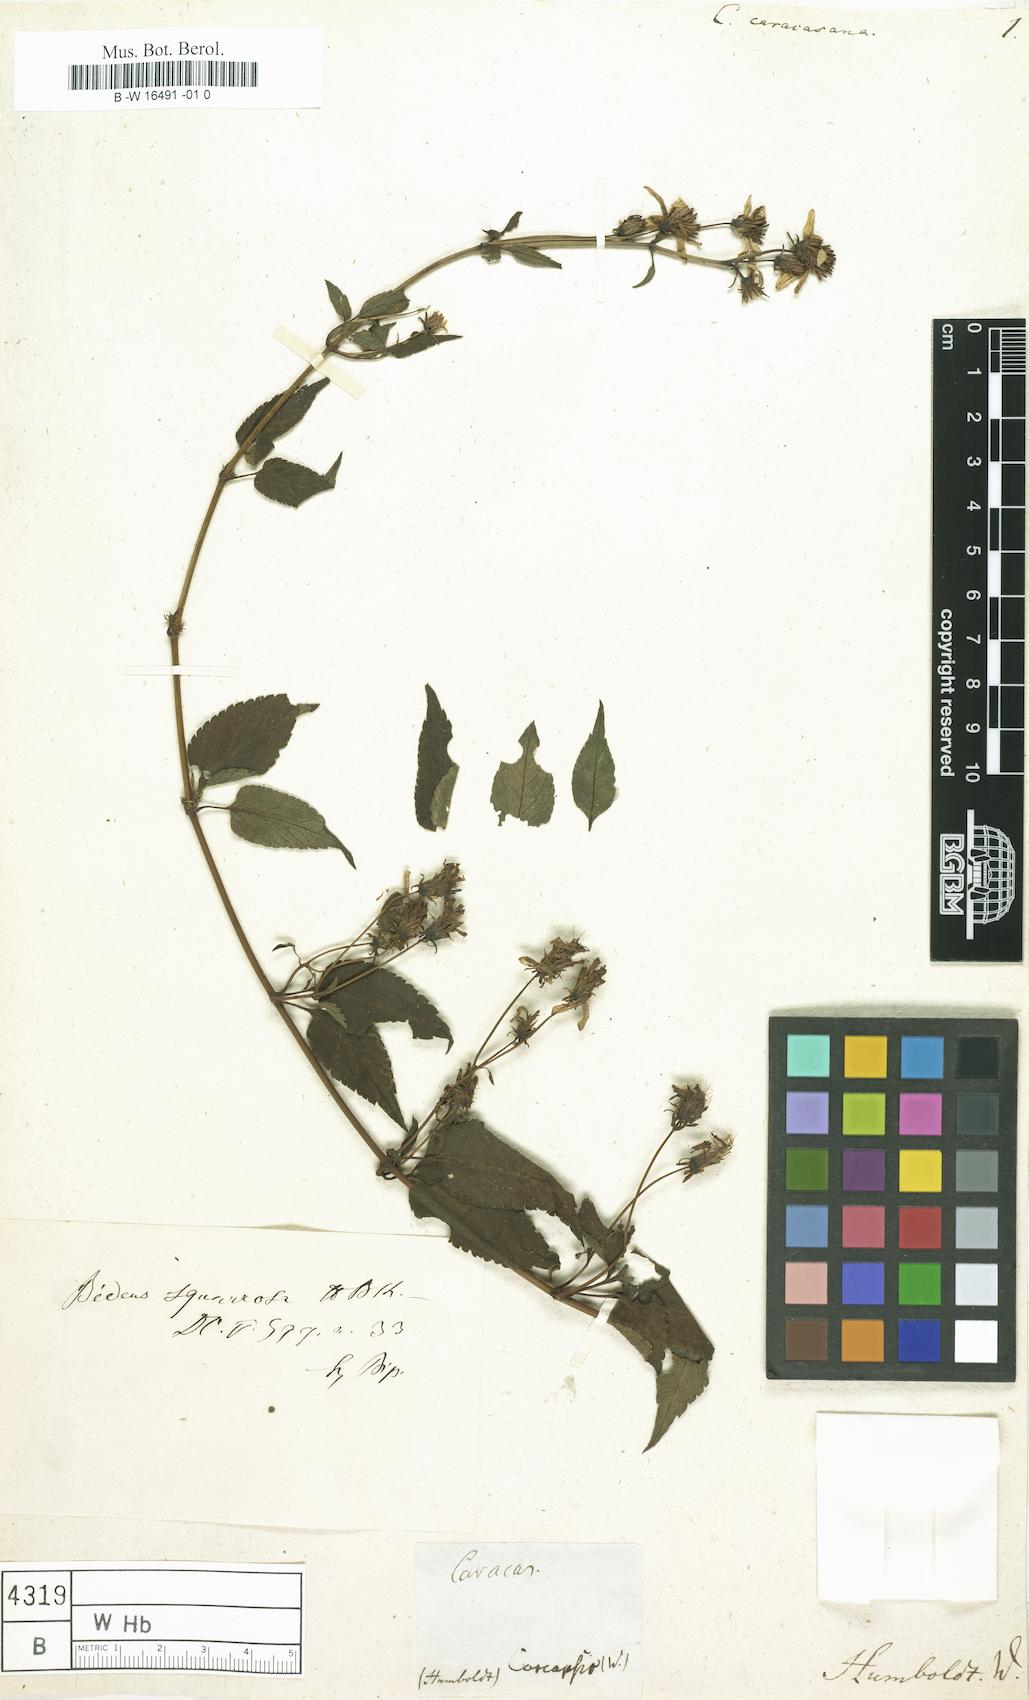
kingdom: Plantae
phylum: Tracheophyta
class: Magnoliopsida
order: Asterales
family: Asteraceae
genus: Coreopsis
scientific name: Coreopsis
